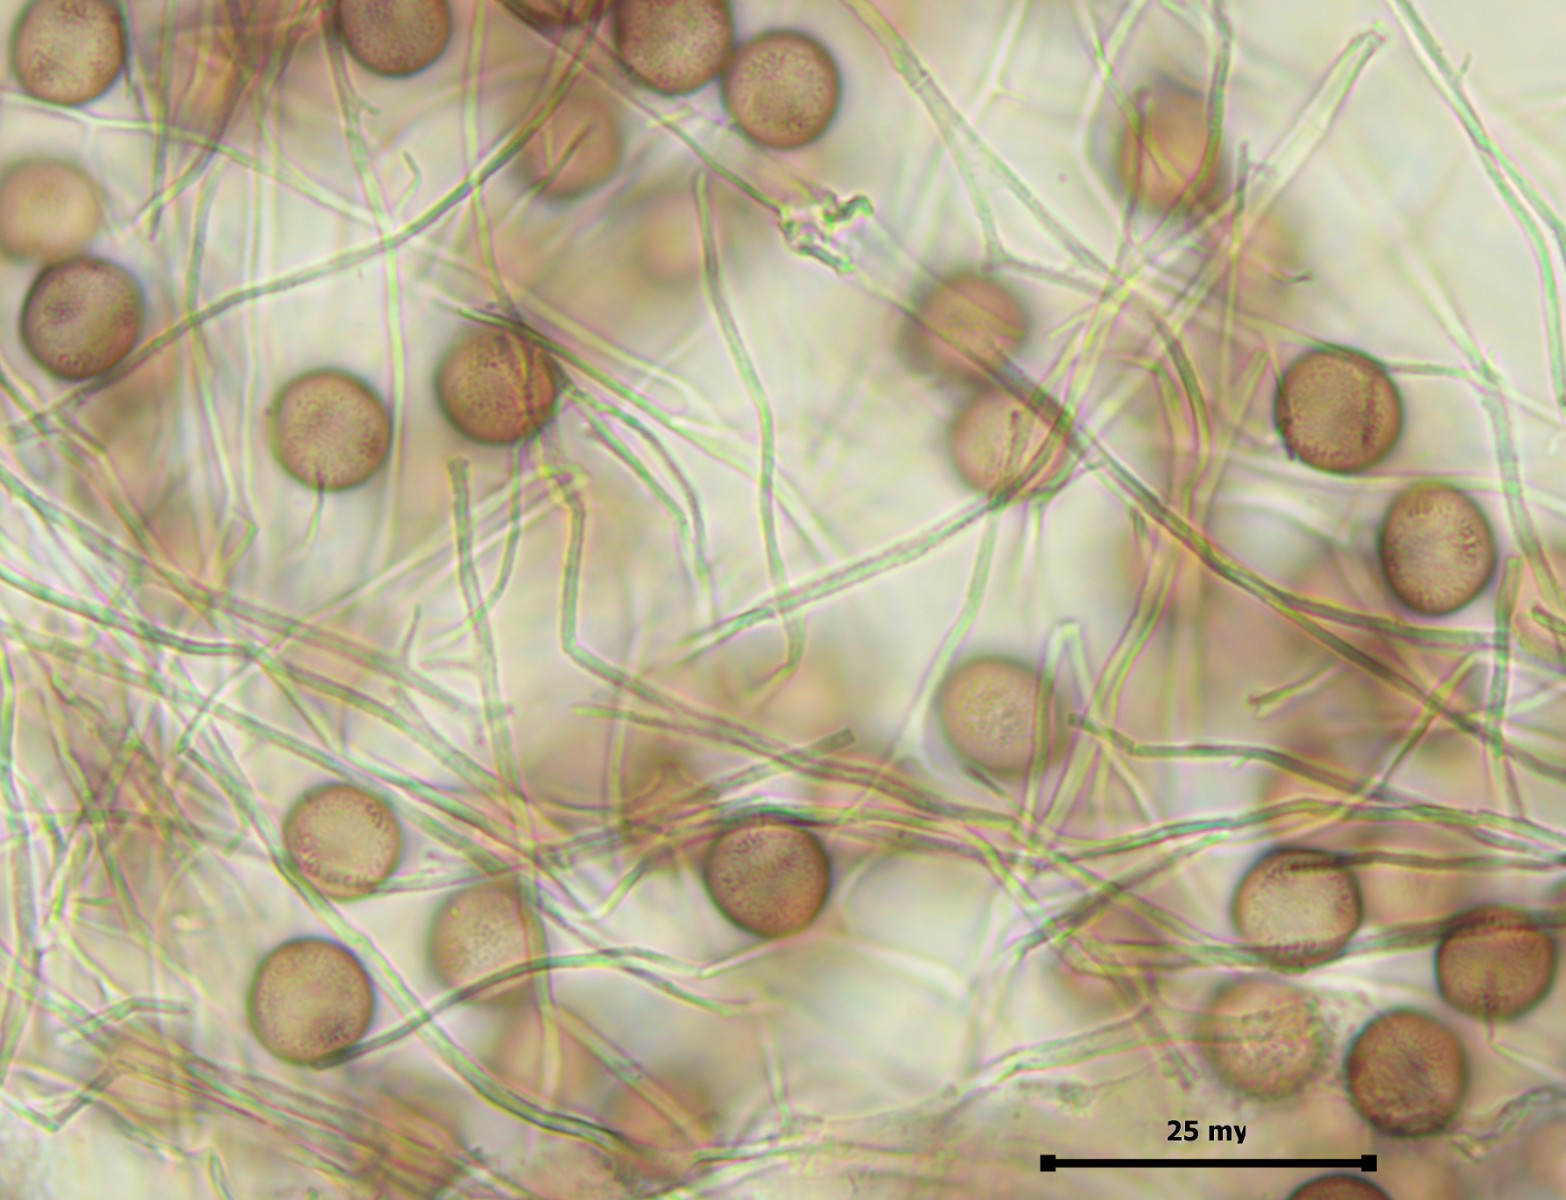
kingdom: Protozoa
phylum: Mycetozoa
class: Myxomycetes
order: Physarales
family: Physaraceae
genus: Physarum
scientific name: Physarum album
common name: nikkende støvknop
